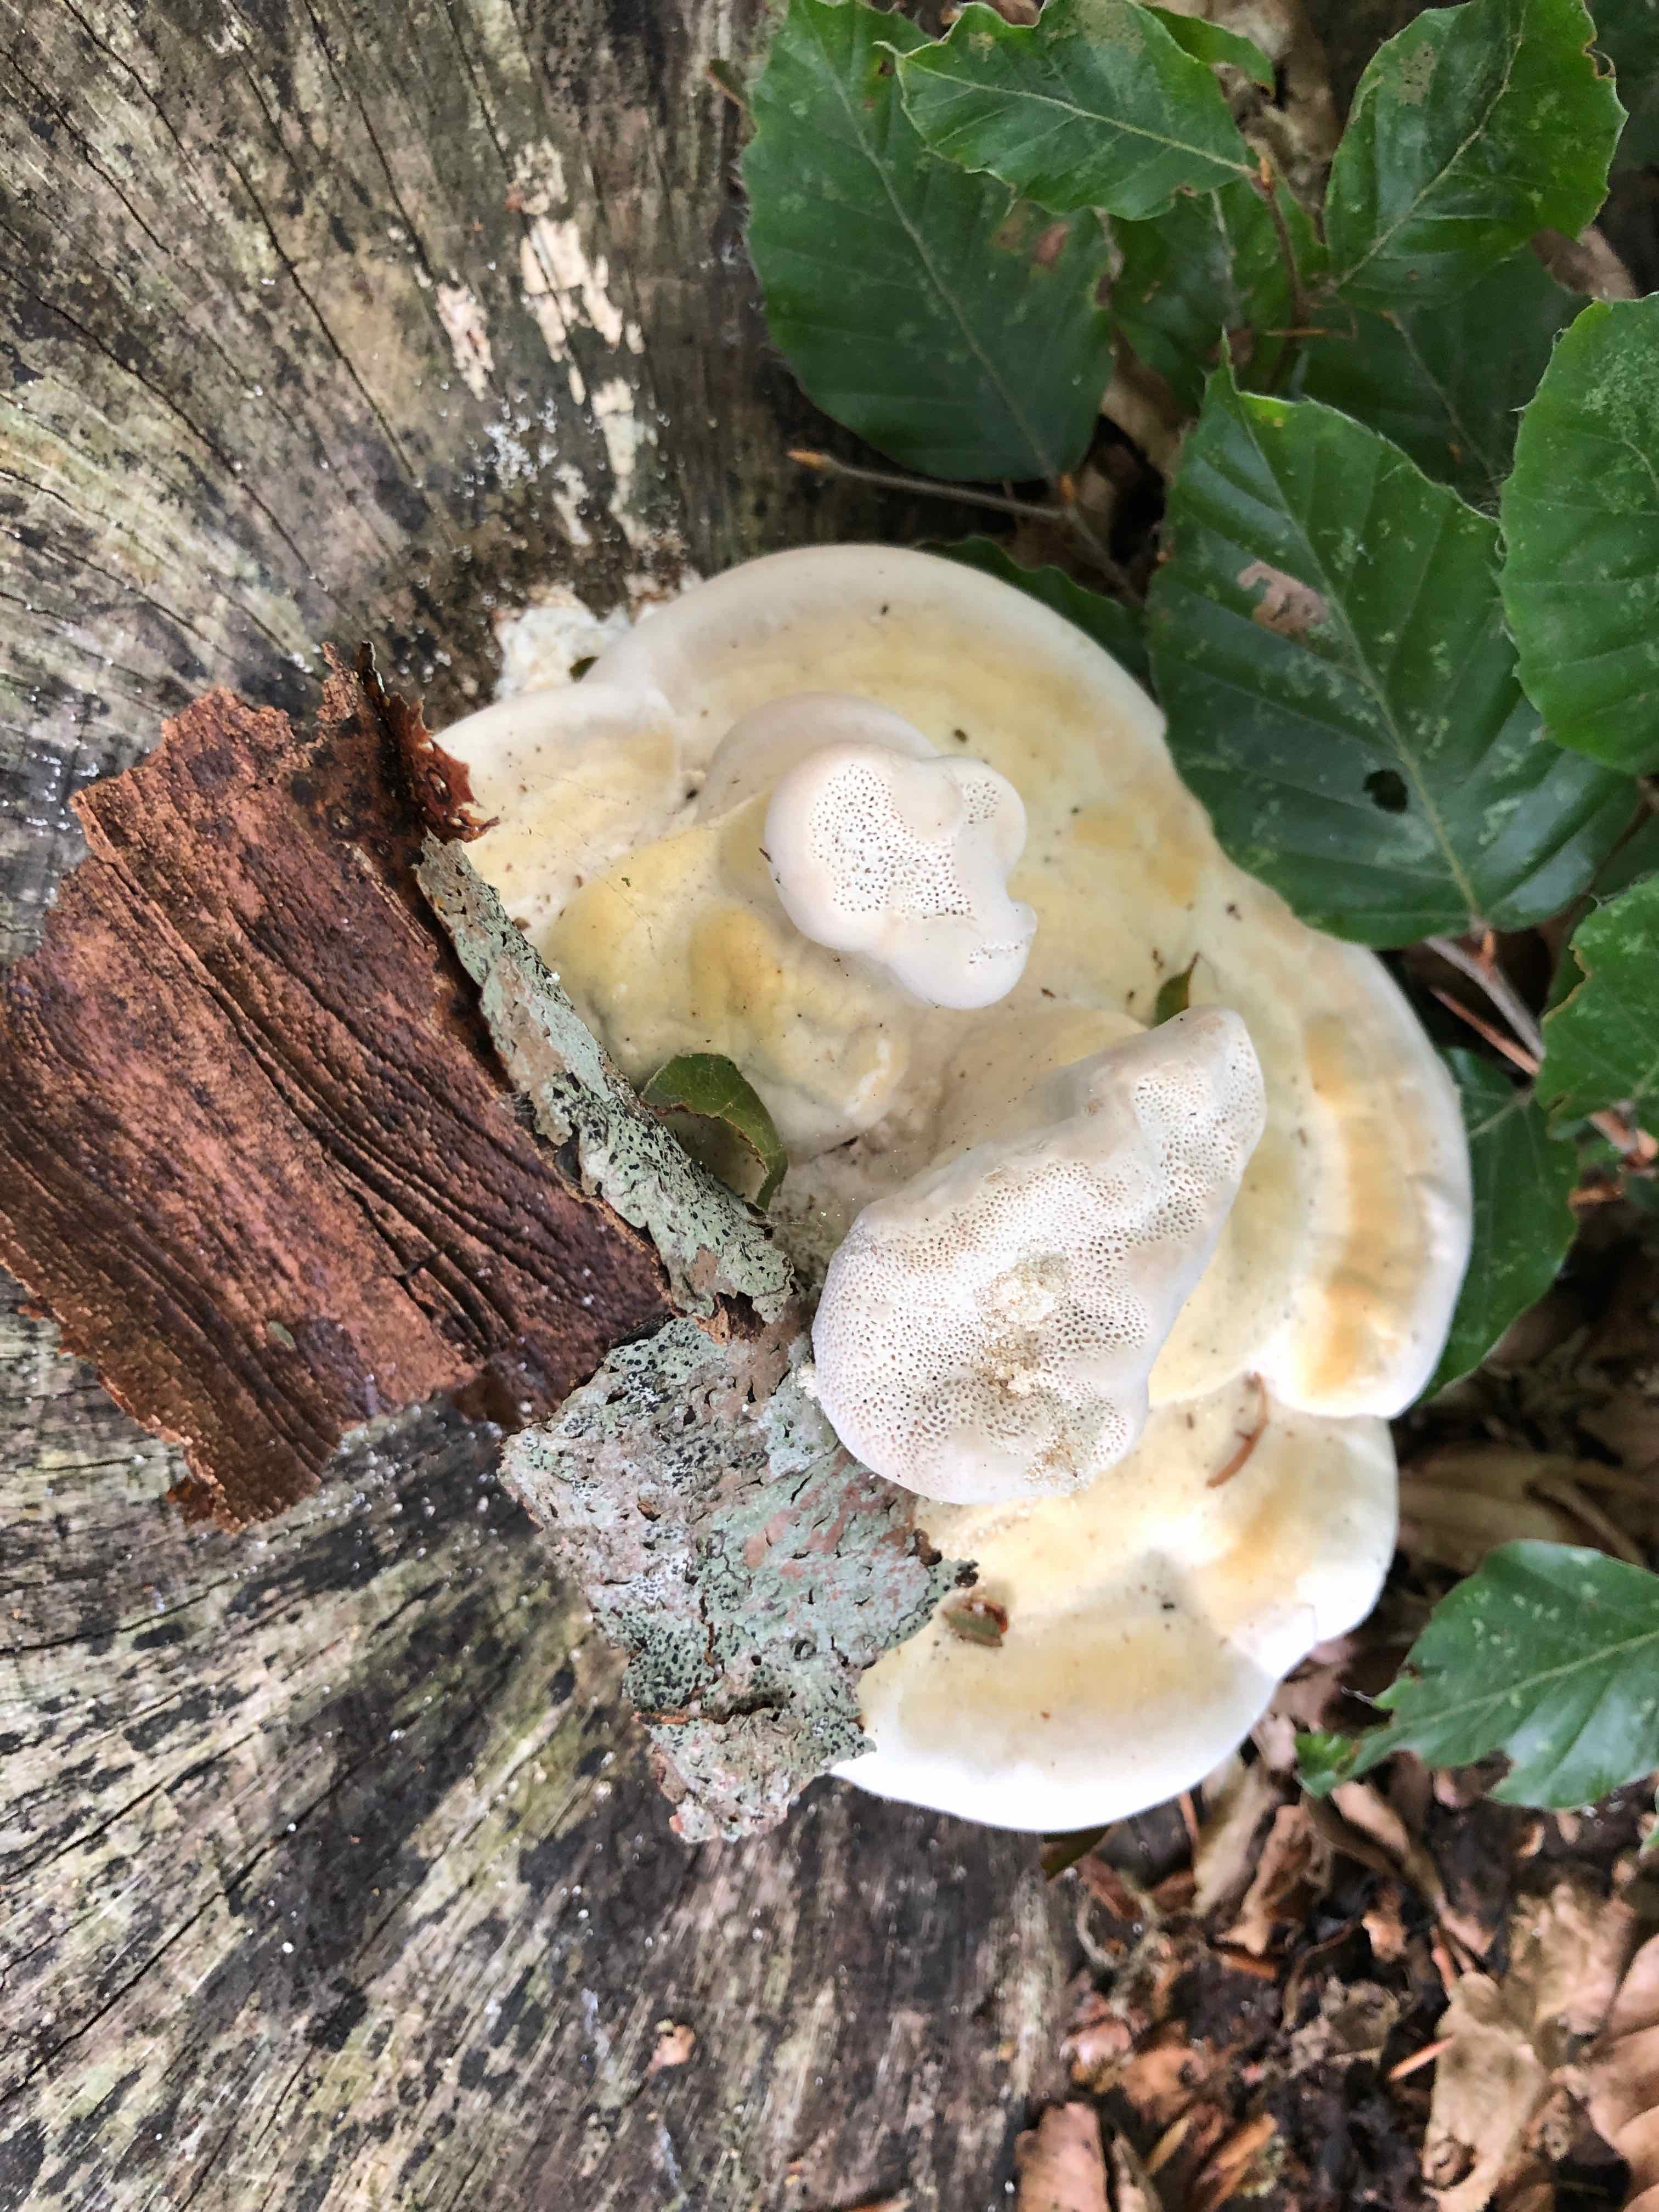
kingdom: Fungi
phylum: Basidiomycota
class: Agaricomycetes
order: Polyporales
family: Polyporaceae
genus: Trametes
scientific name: Trametes gibbosa
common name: puklet læderporesvamp
